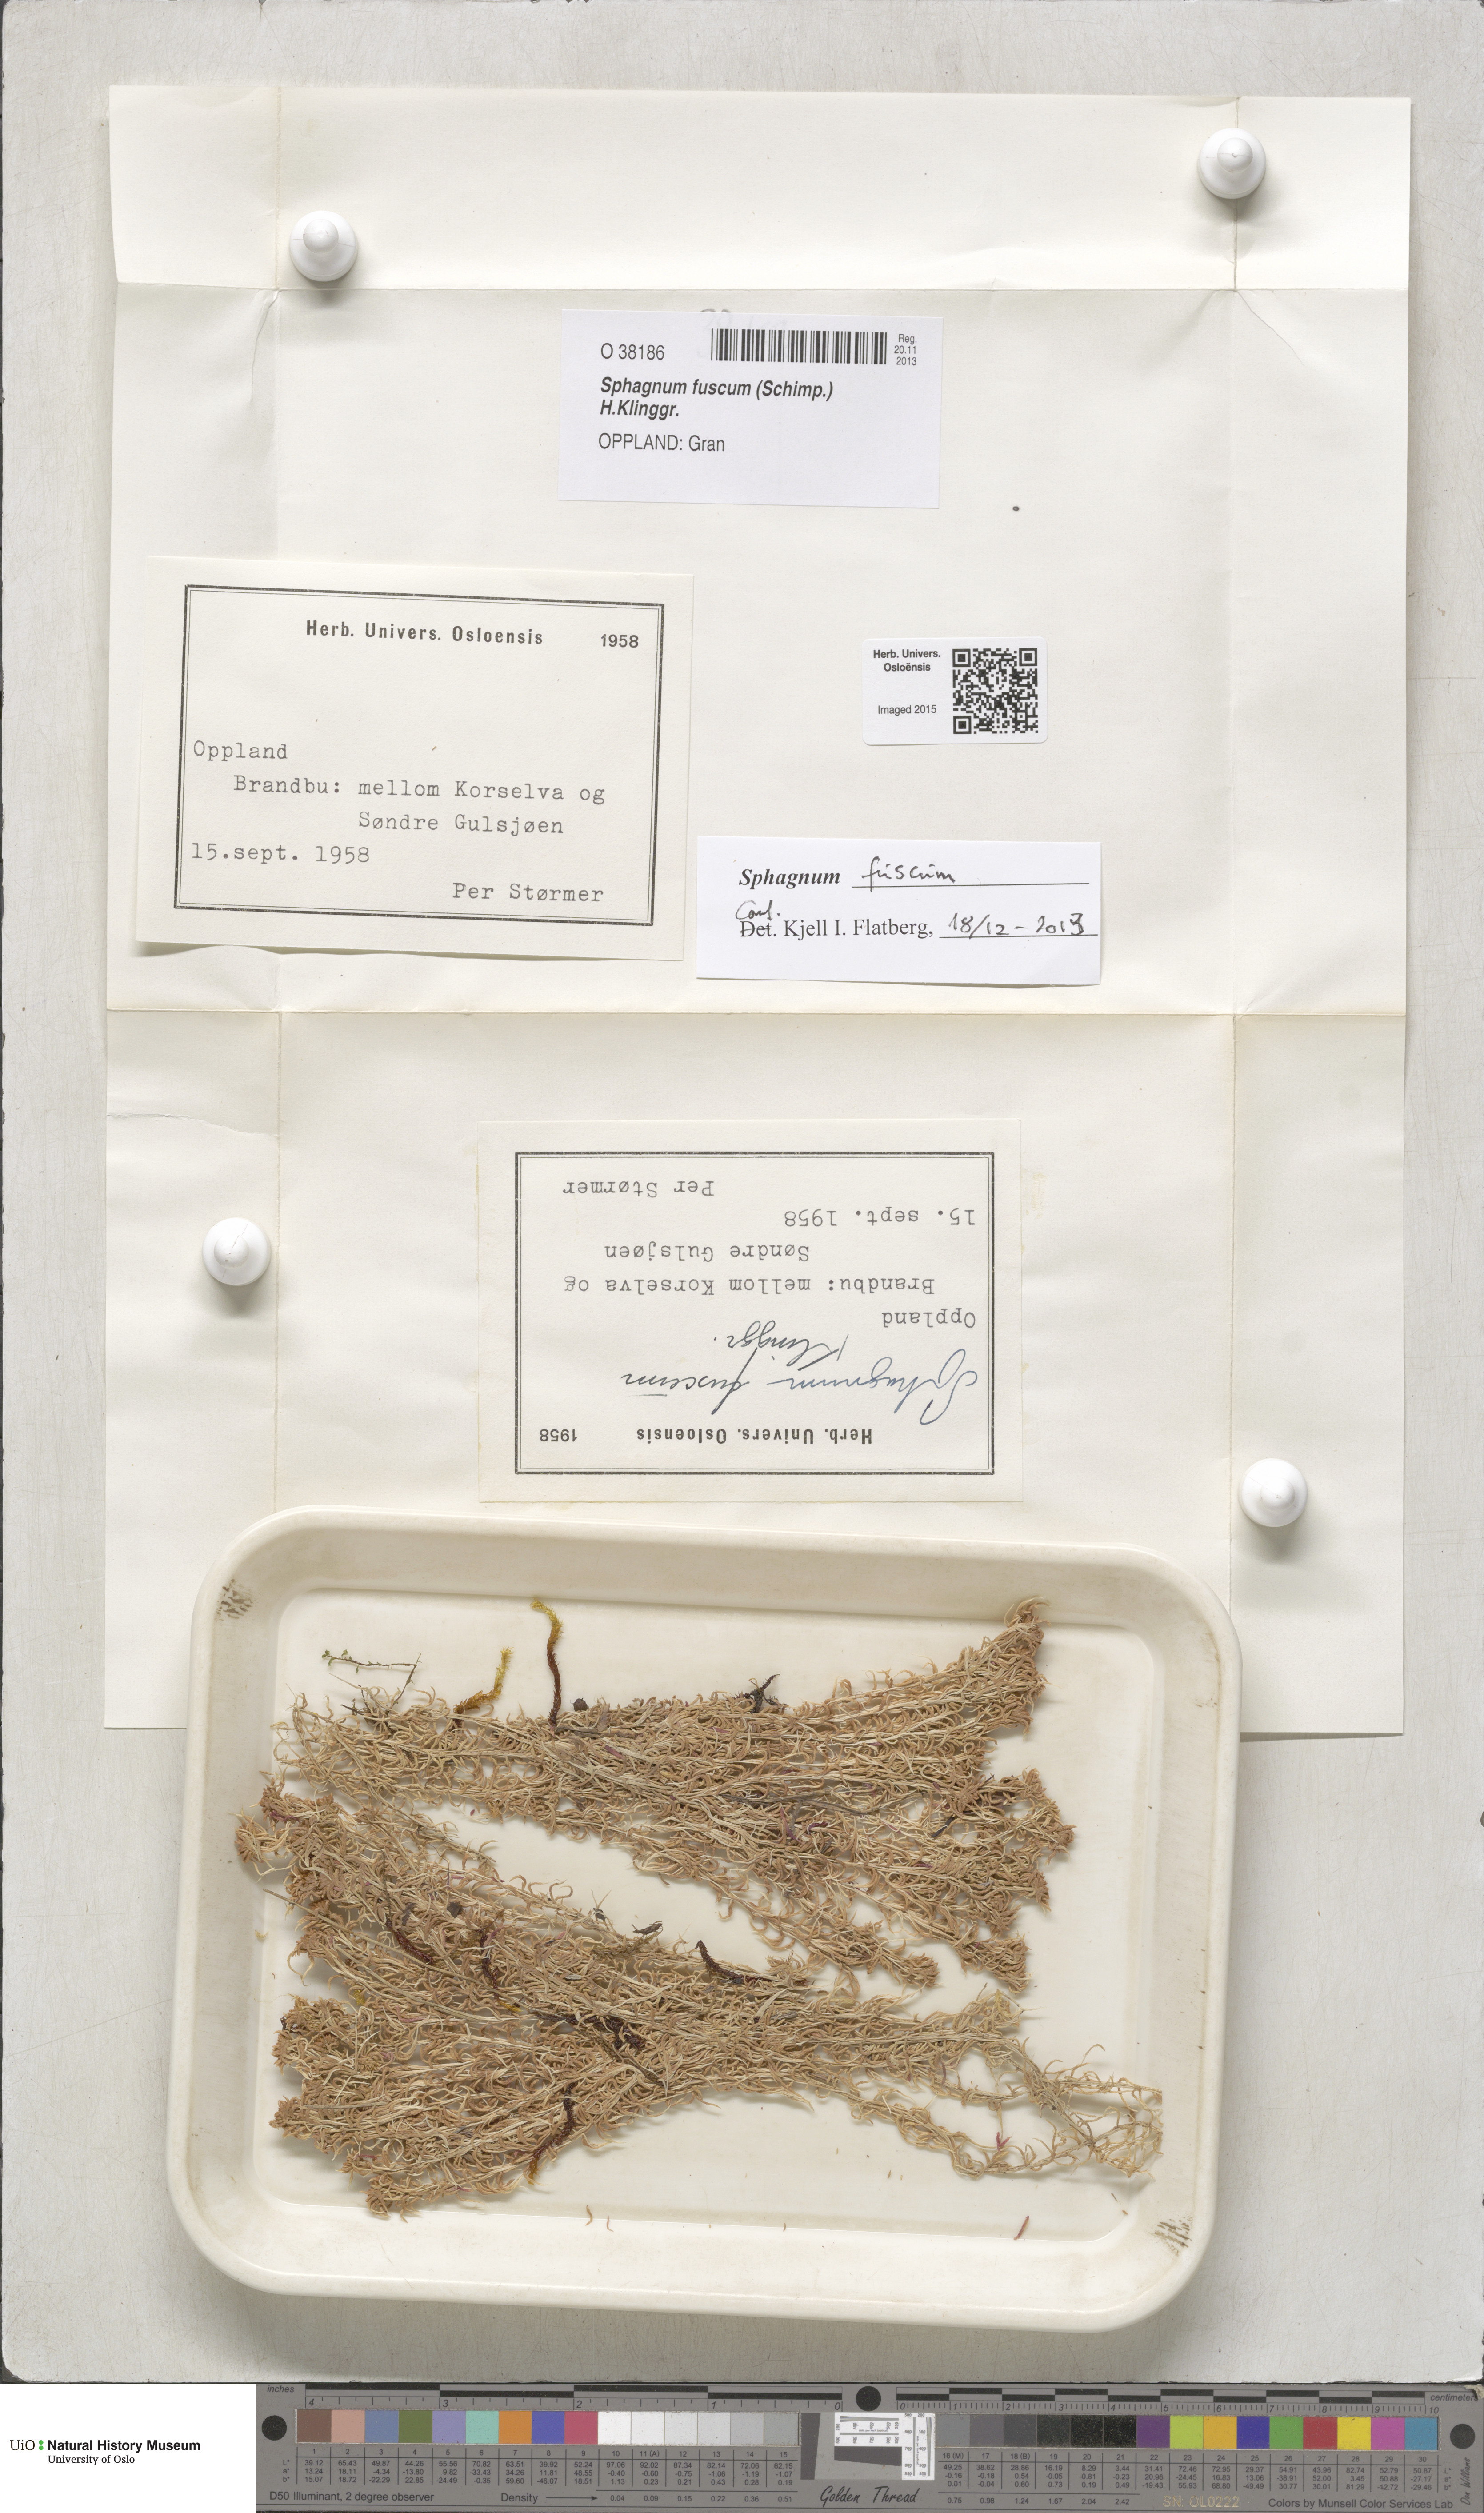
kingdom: Plantae
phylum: Bryophyta
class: Sphagnopsida
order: Sphagnales
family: Sphagnaceae
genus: Sphagnum
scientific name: Sphagnum fuscum
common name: Brown peat moss
